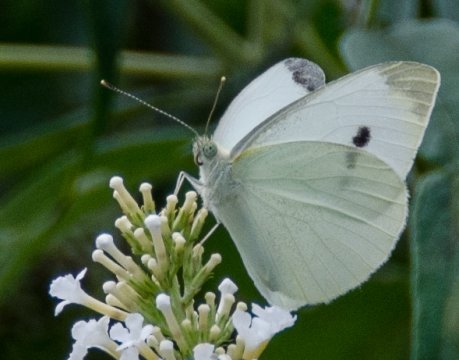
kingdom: Animalia
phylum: Arthropoda
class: Insecta
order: Lepidoptera
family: Pieridae
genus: Pieris
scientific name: Pieris rapae
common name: Cabbage White
